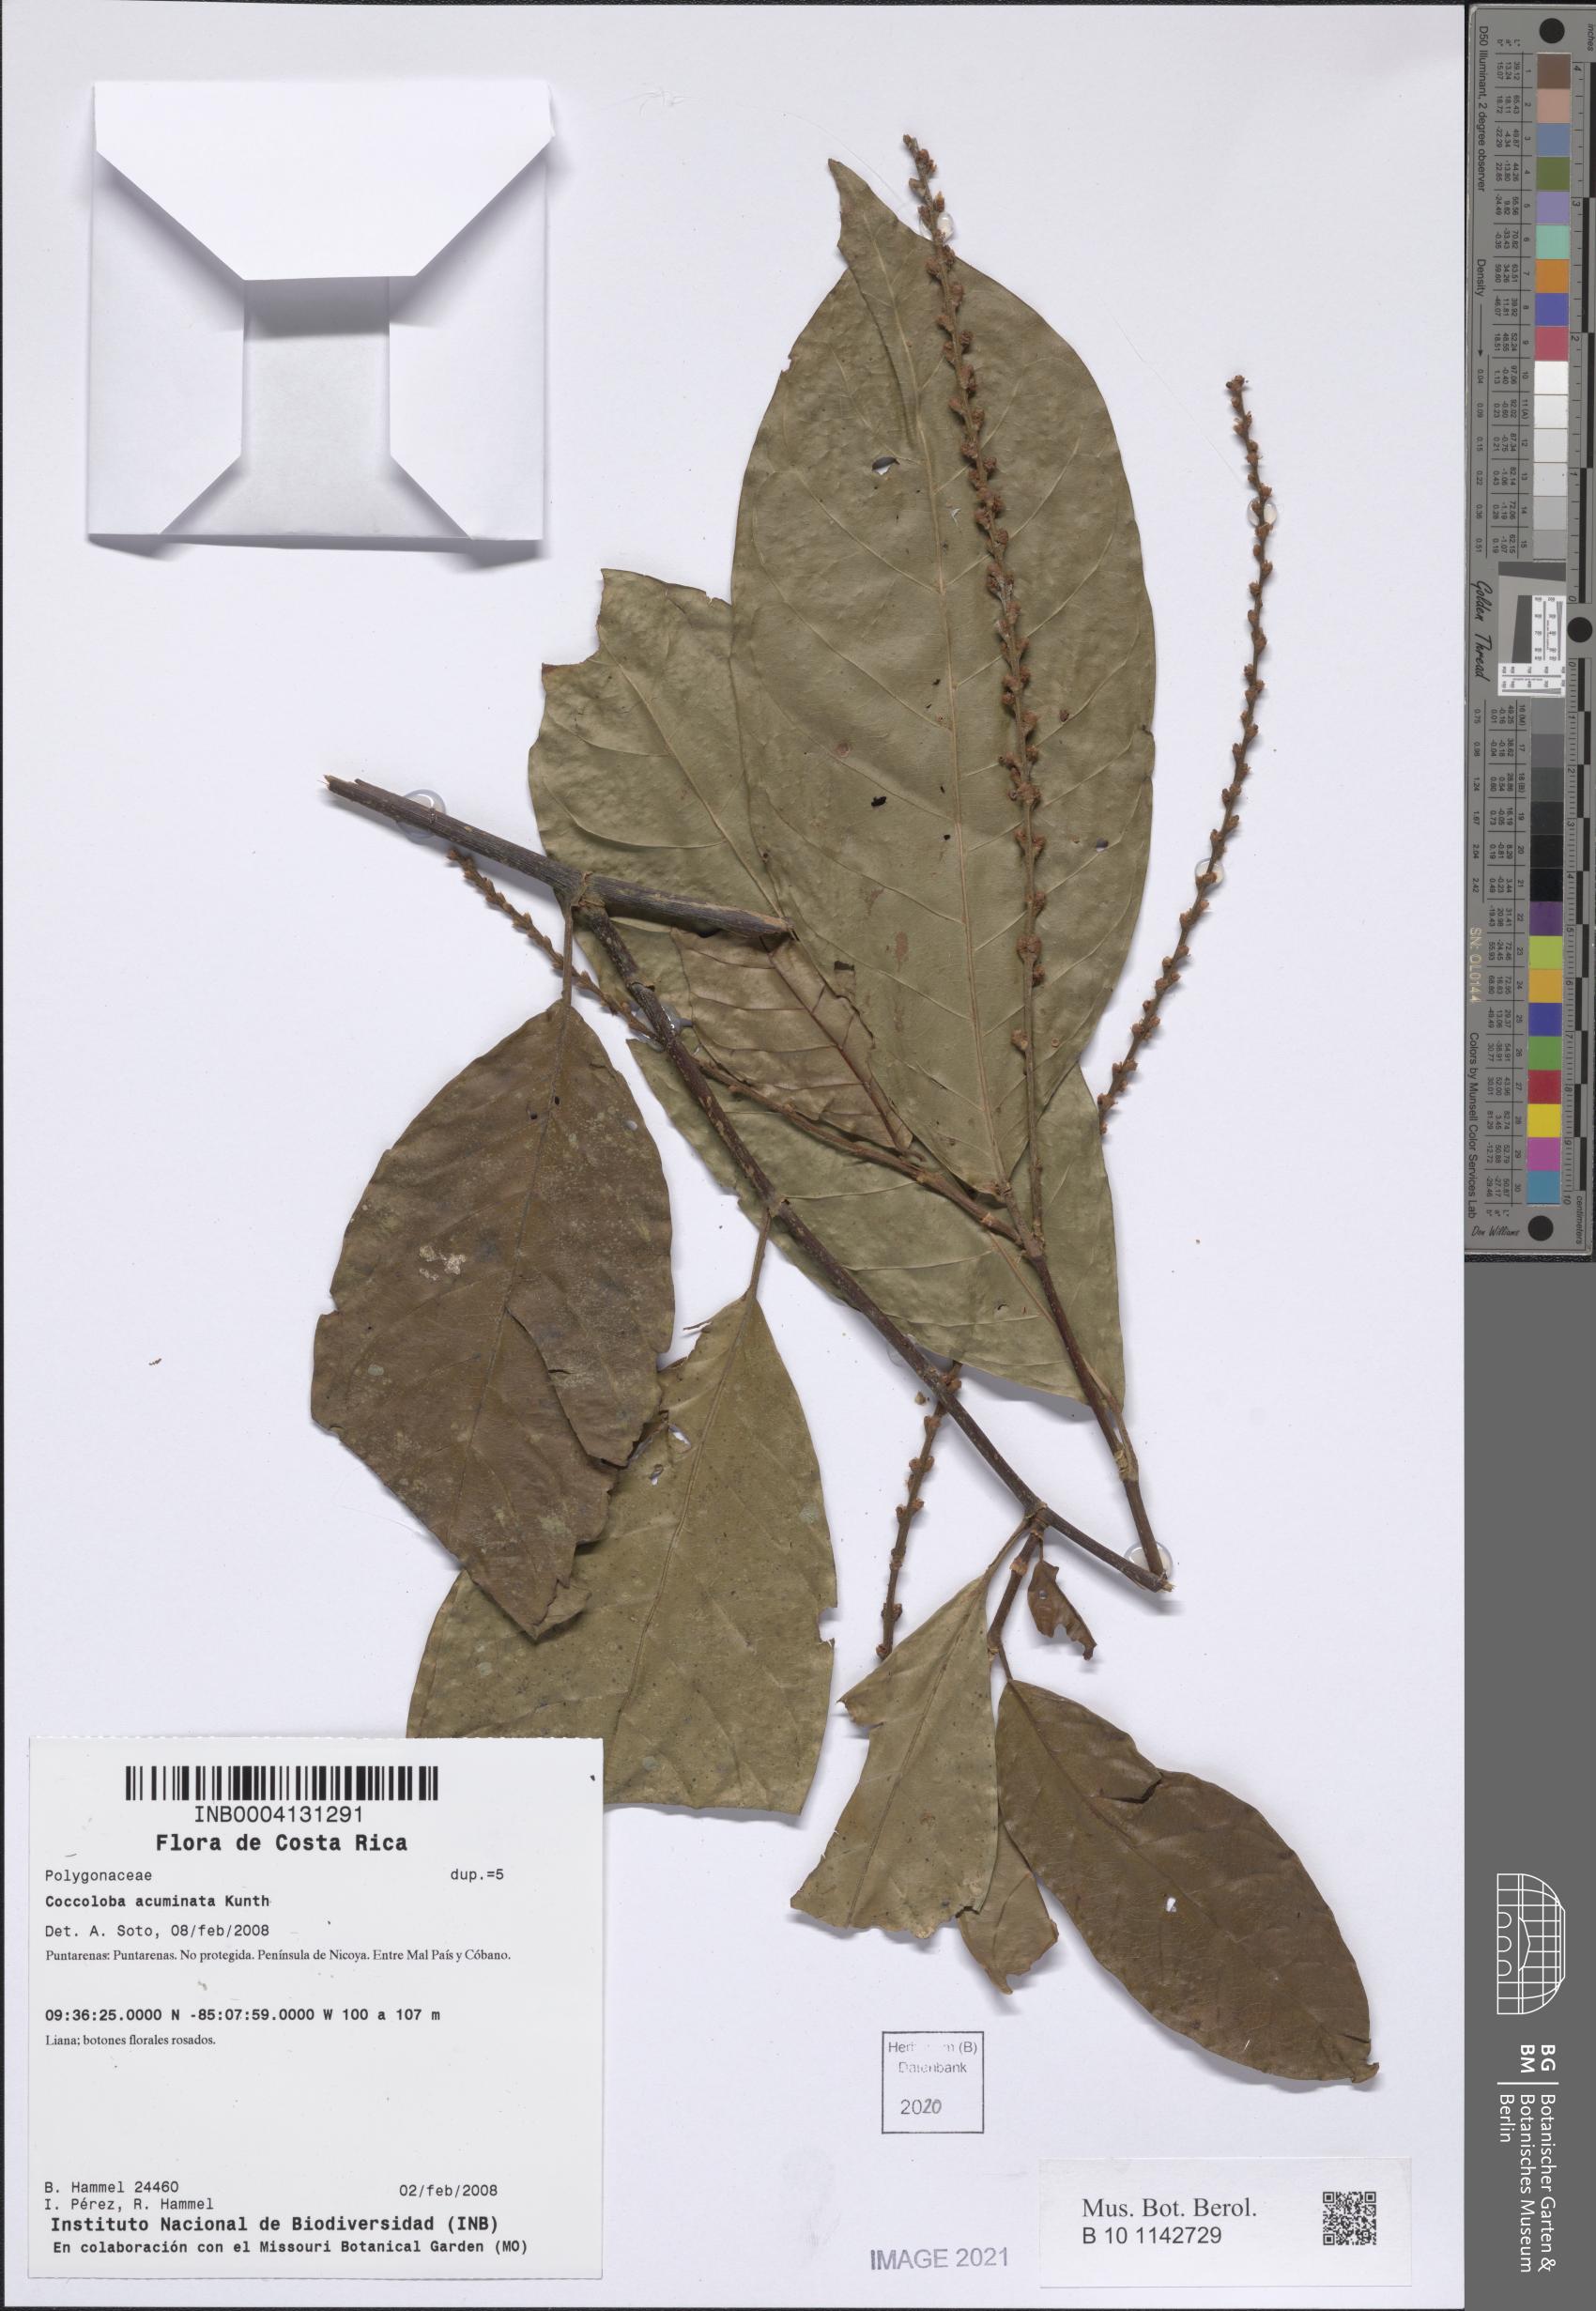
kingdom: Plantae
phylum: Tracheophyta
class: Magnoliopsida
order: Caryophyllales
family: Polygonaceae
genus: Coccoloba
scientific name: Coccoloba acuminata
